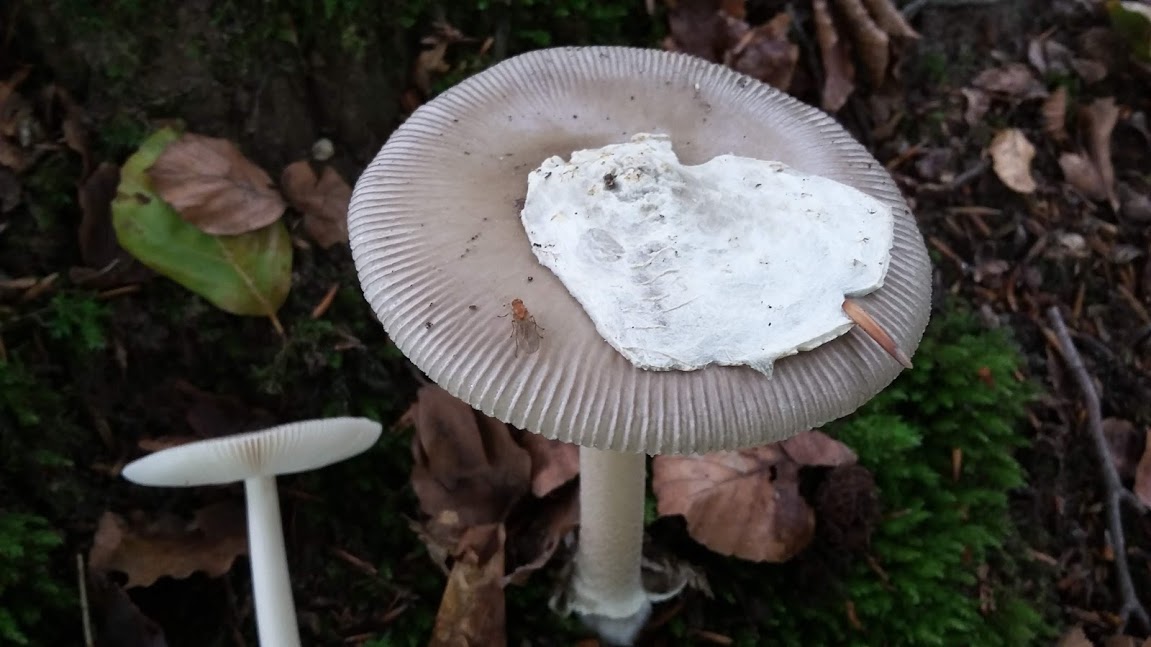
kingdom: Fungi
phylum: Basidiomycota
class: Agaricomycetes
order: Agaricales
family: Amanitaceae
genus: Amanita
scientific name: Amanita
